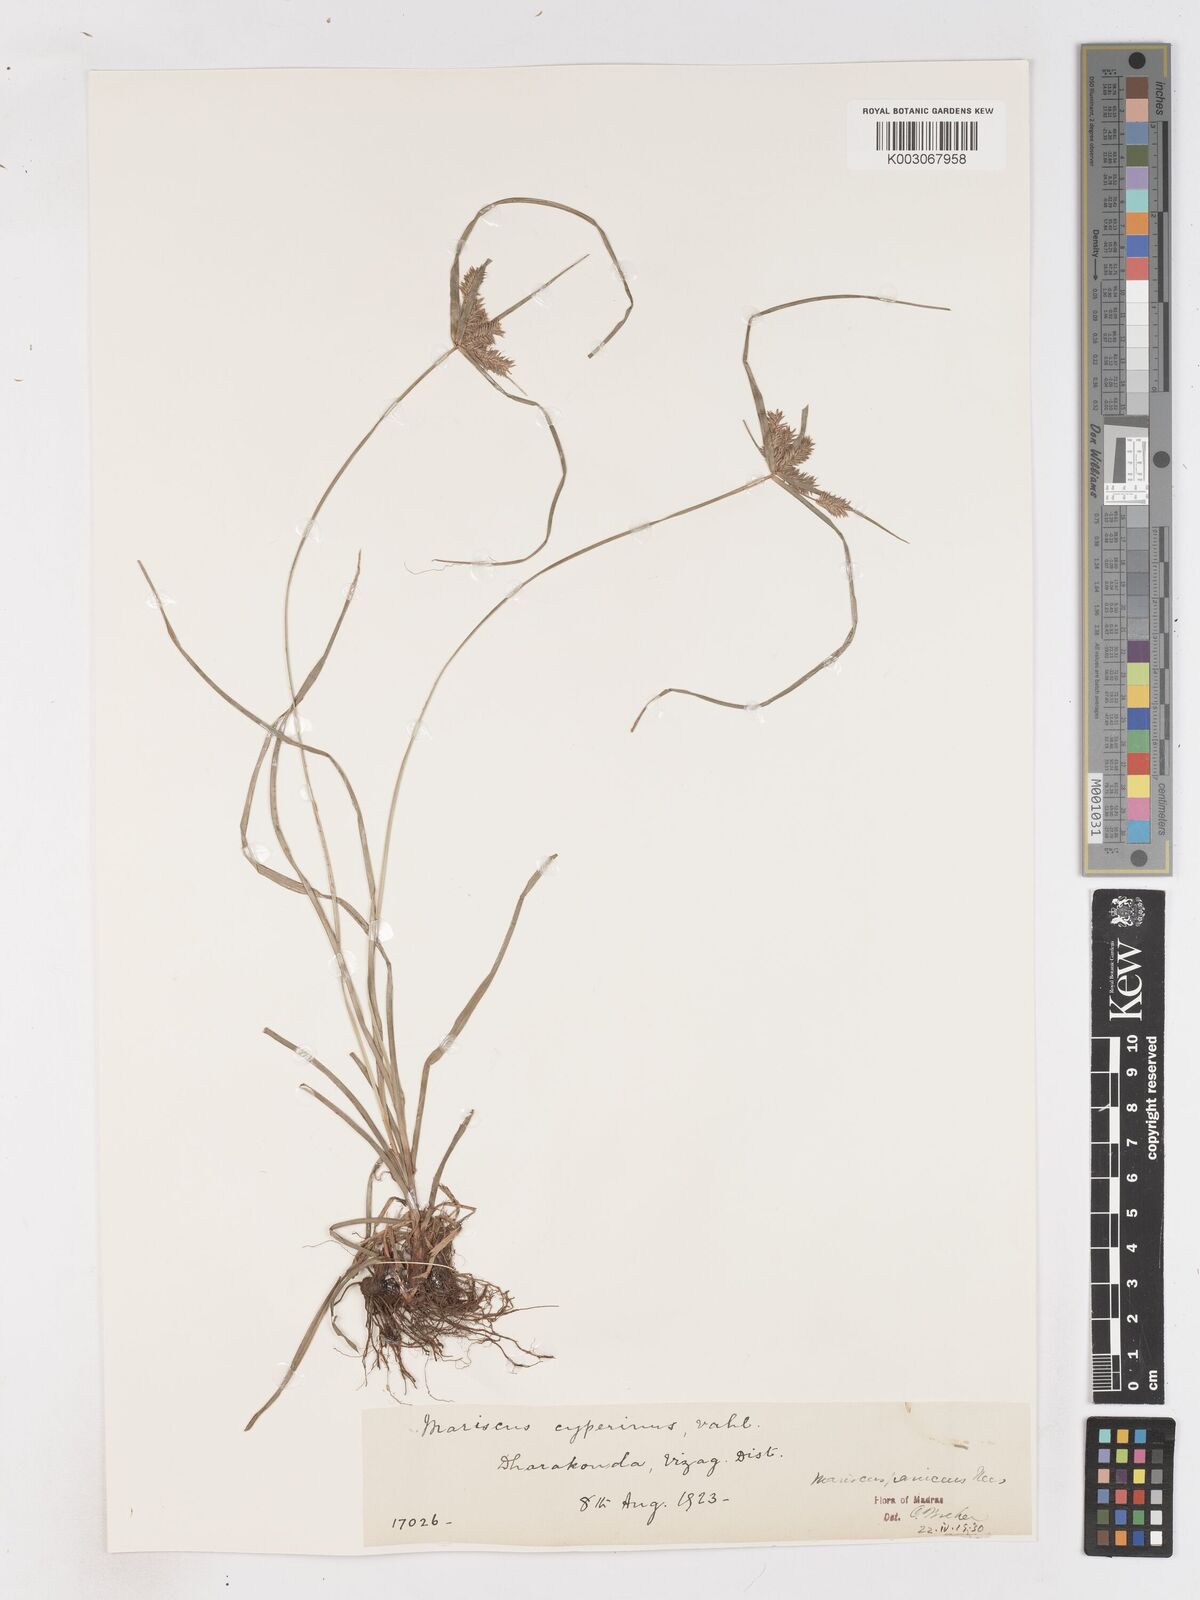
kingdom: Plantae
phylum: Tracheophyta
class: Liliopsida
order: Poales
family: Cyperaceae
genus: Cyperus
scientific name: Cyperus paniceus
